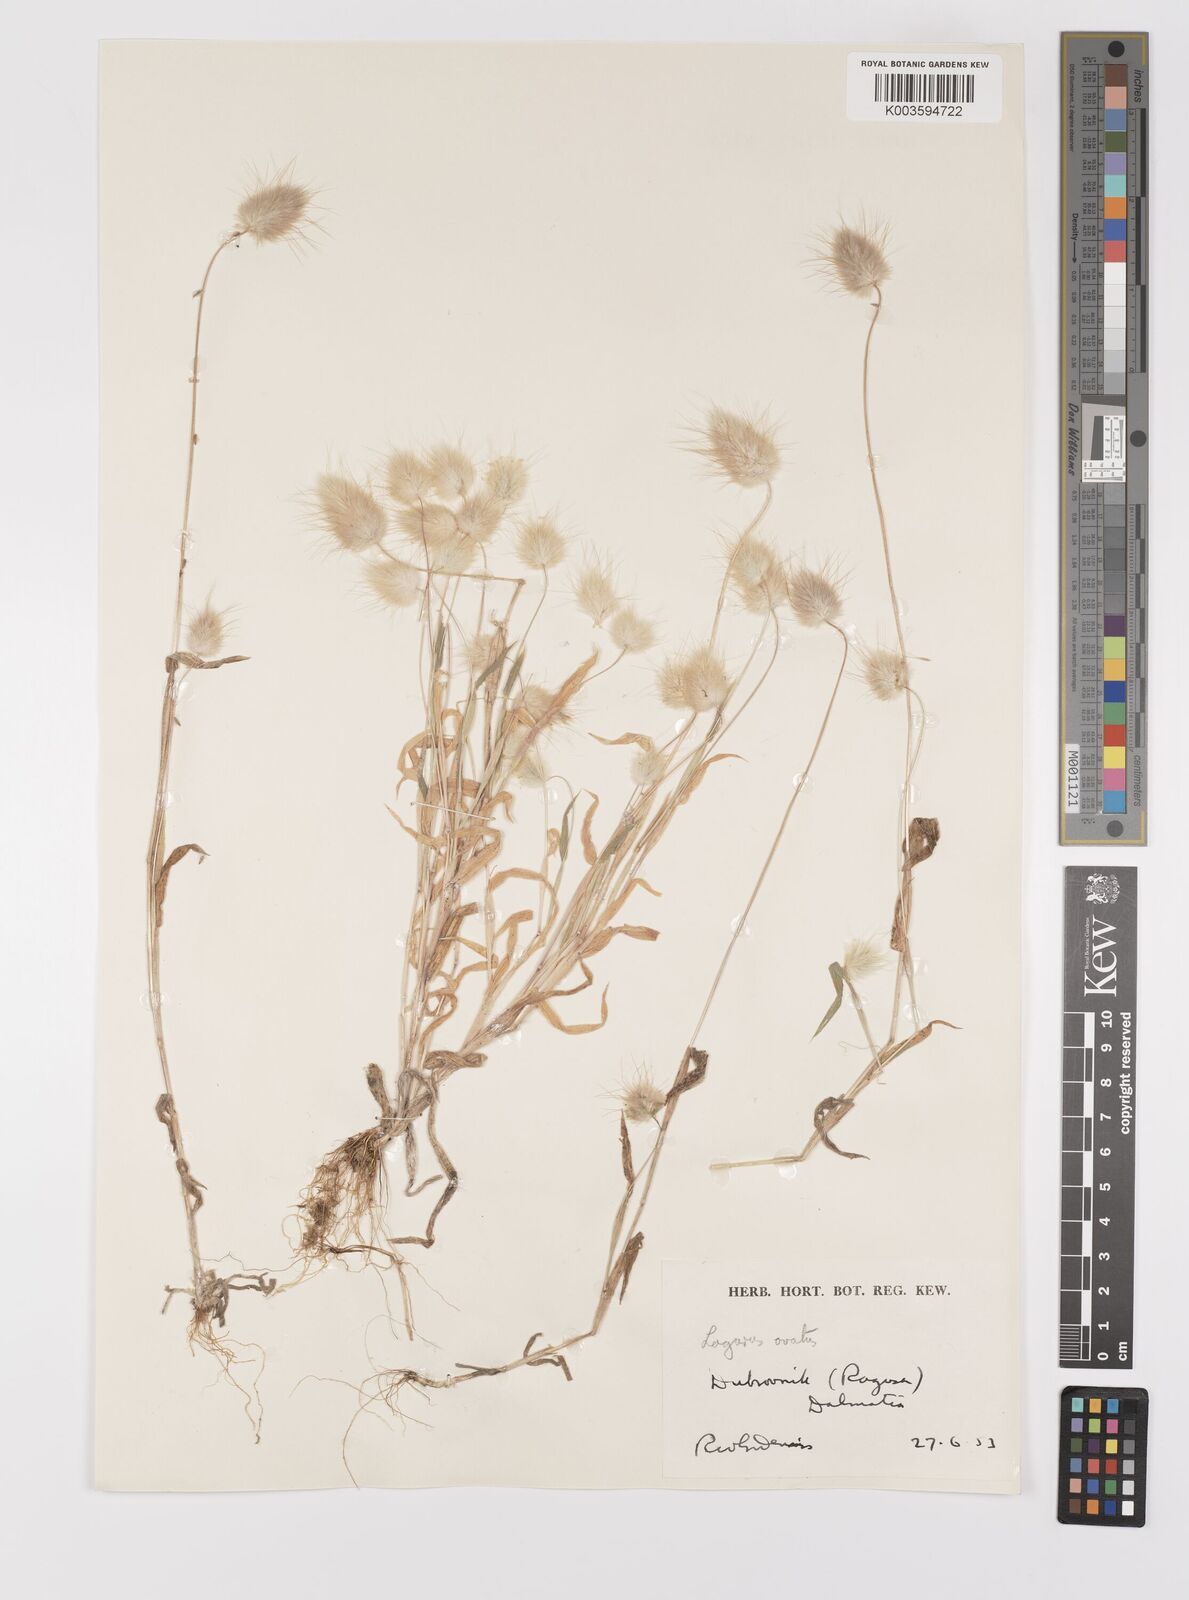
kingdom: Plantae
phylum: Tracheophyta
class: Liliopsida
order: Poales
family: Poaceae
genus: Lagurus
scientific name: Lagurus ovatus
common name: Hare's-tail
